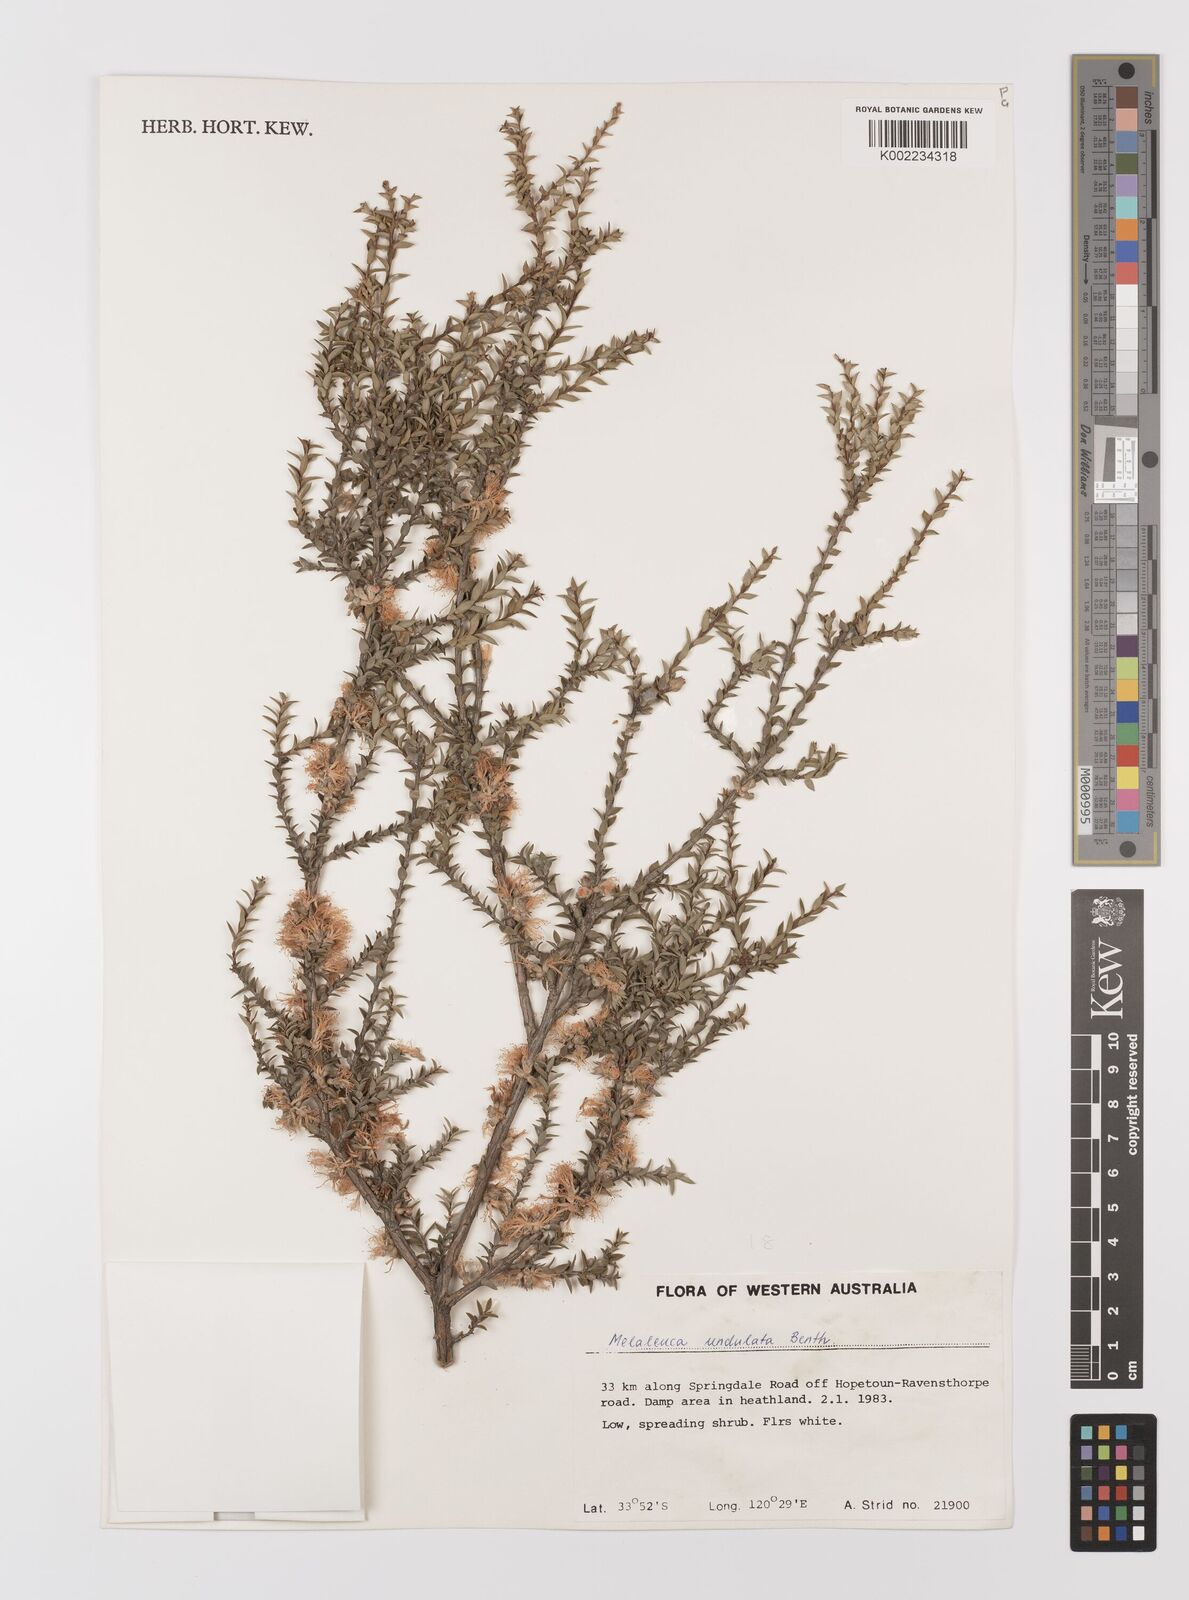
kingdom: Plantae
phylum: Tracheophyta
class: Magnoliopsida
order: Myrtales
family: Myrtaceae
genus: Melaleuca
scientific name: Melaleuca undulata
